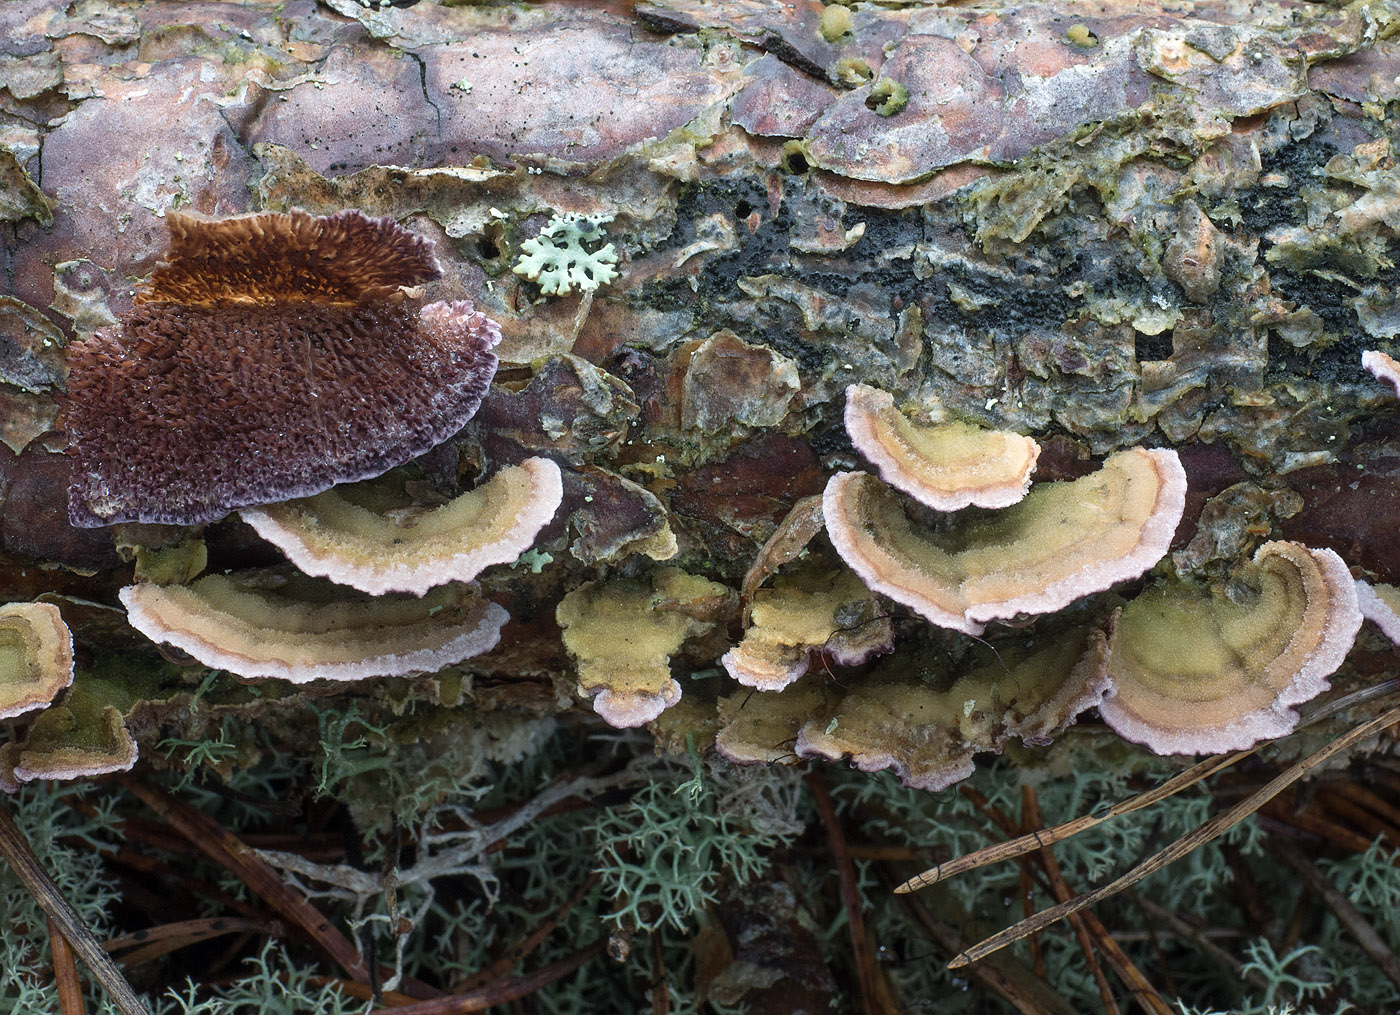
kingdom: Fungi
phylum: Basidiomycota
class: Agaricomycetes
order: Hymenochaetales
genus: Trichaptum
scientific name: Trichaptum fuscoviolaceum
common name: tandet violporesvamp
